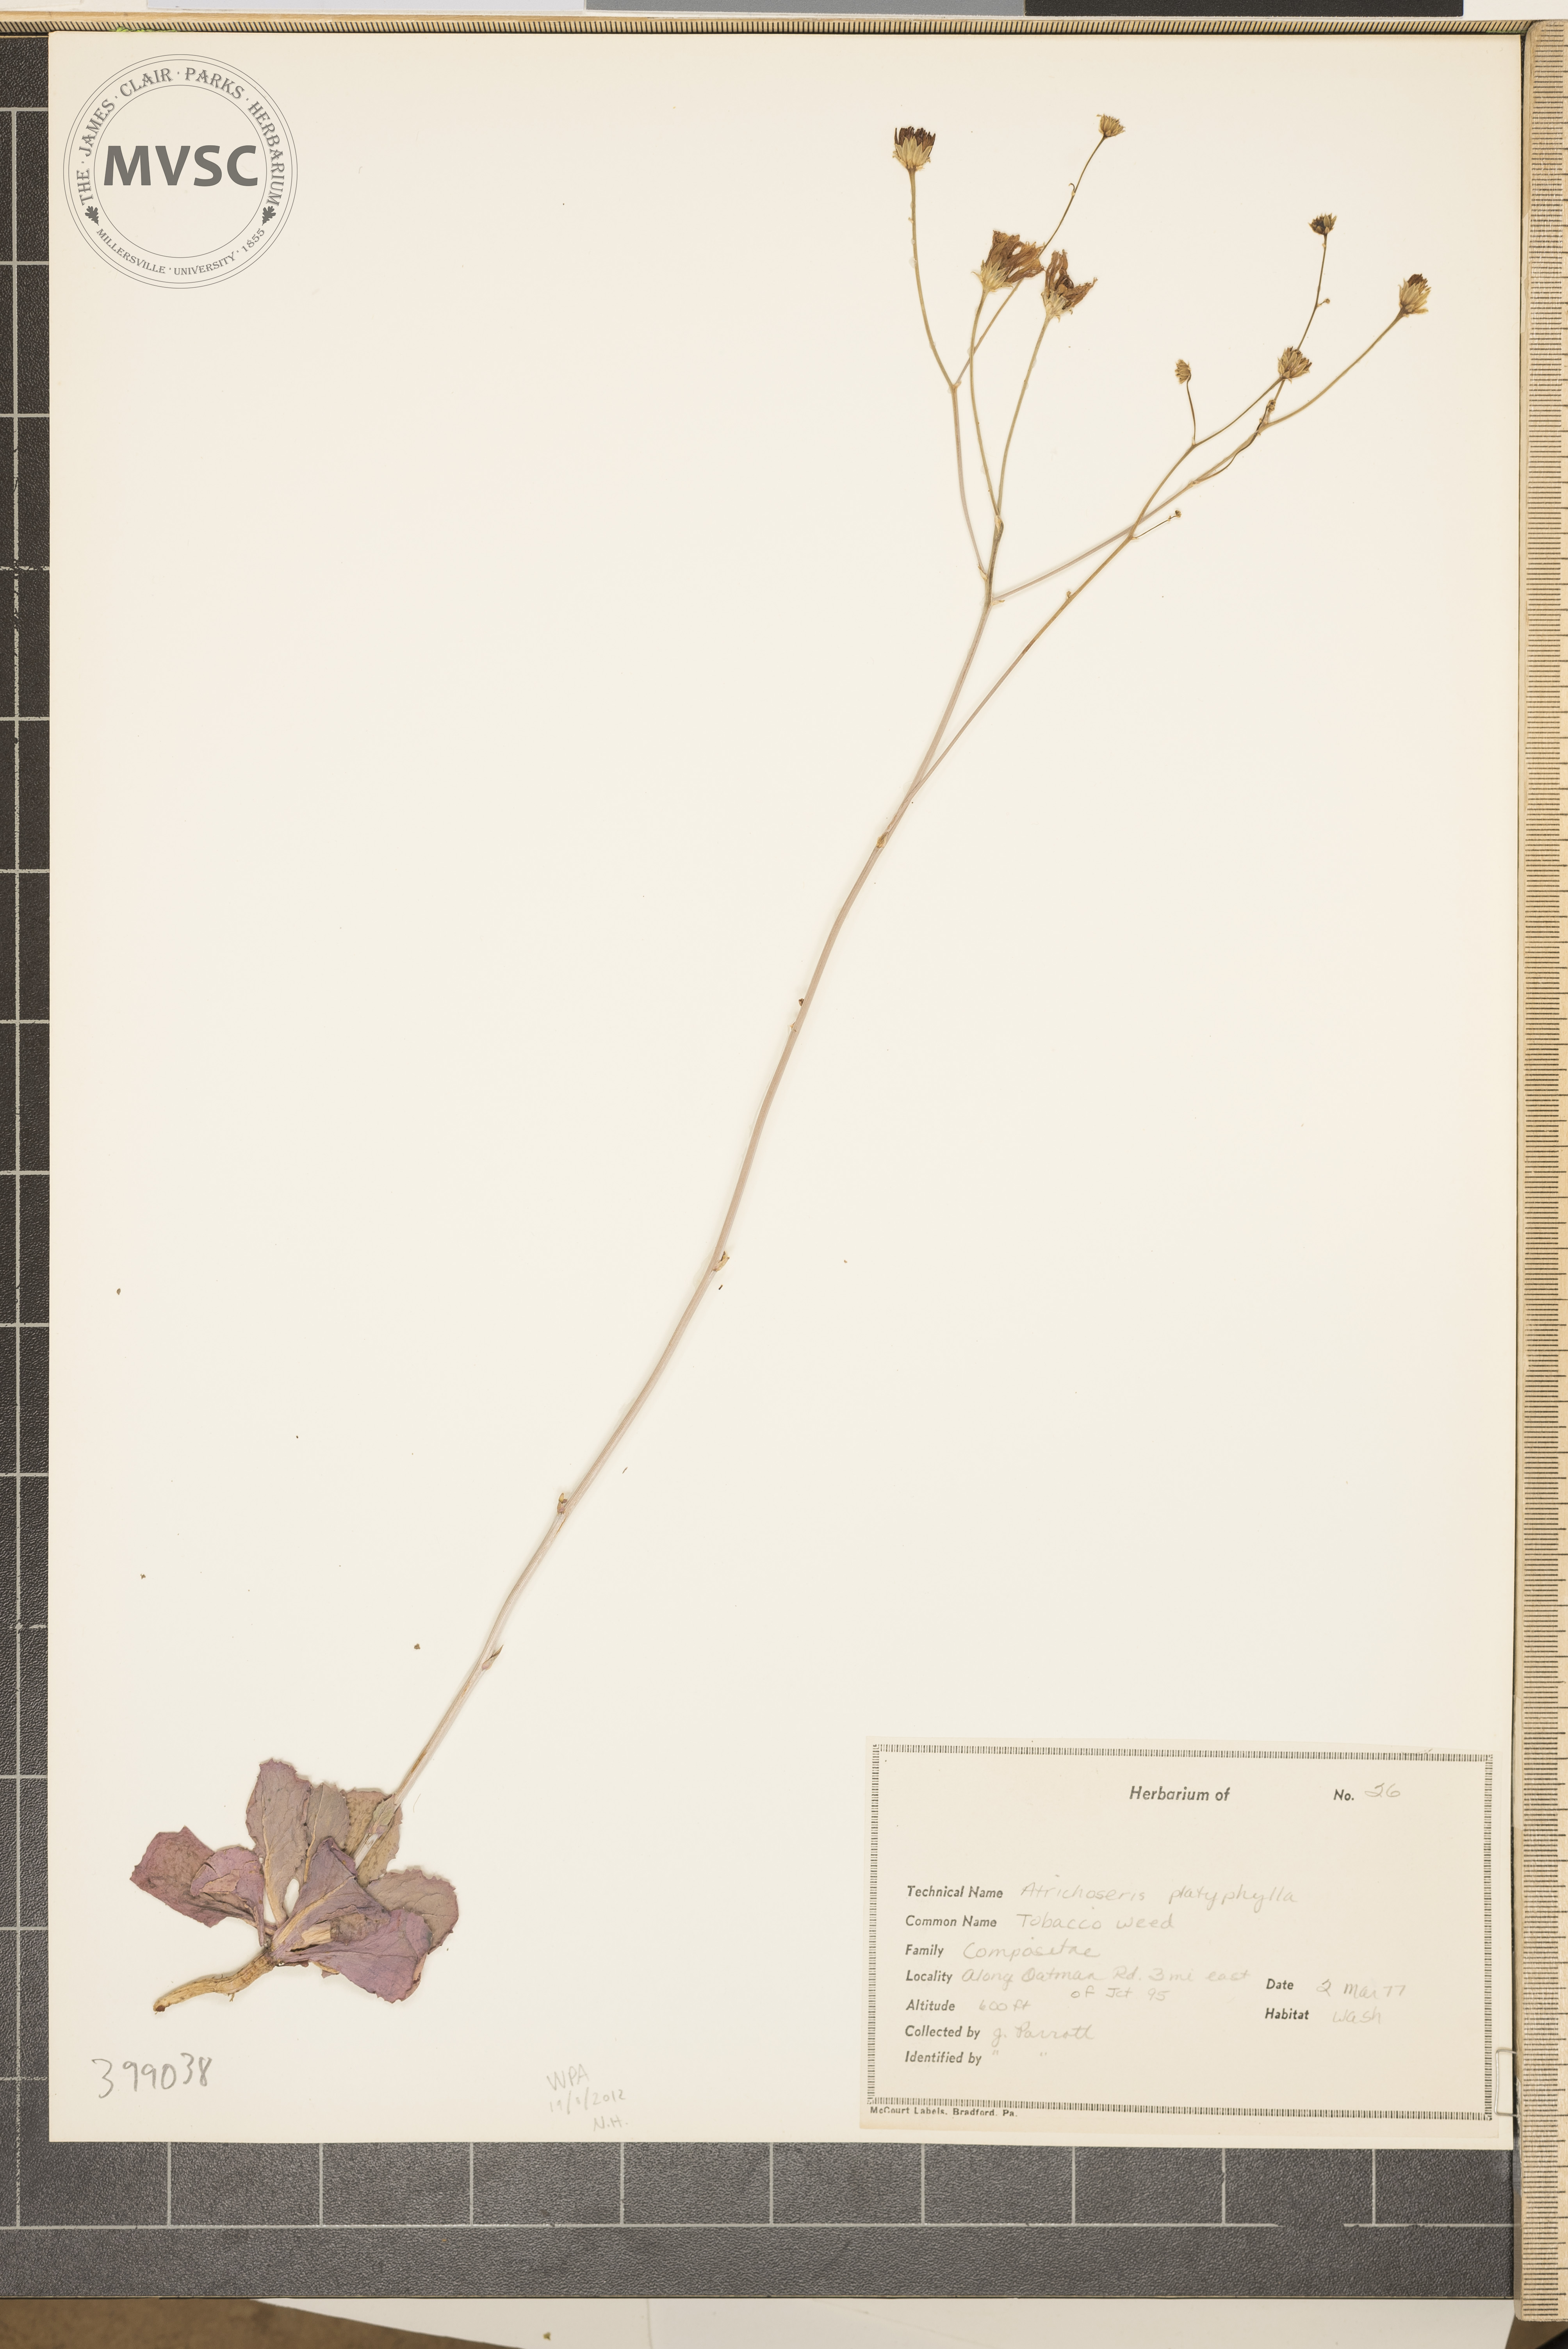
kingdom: Plantae
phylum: Tracheophyta
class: Magnoliopsida
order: Asterales
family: Asteraceae
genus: Atrichoseris
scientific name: Atrichoseris platyphylla
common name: Southern lady fern
